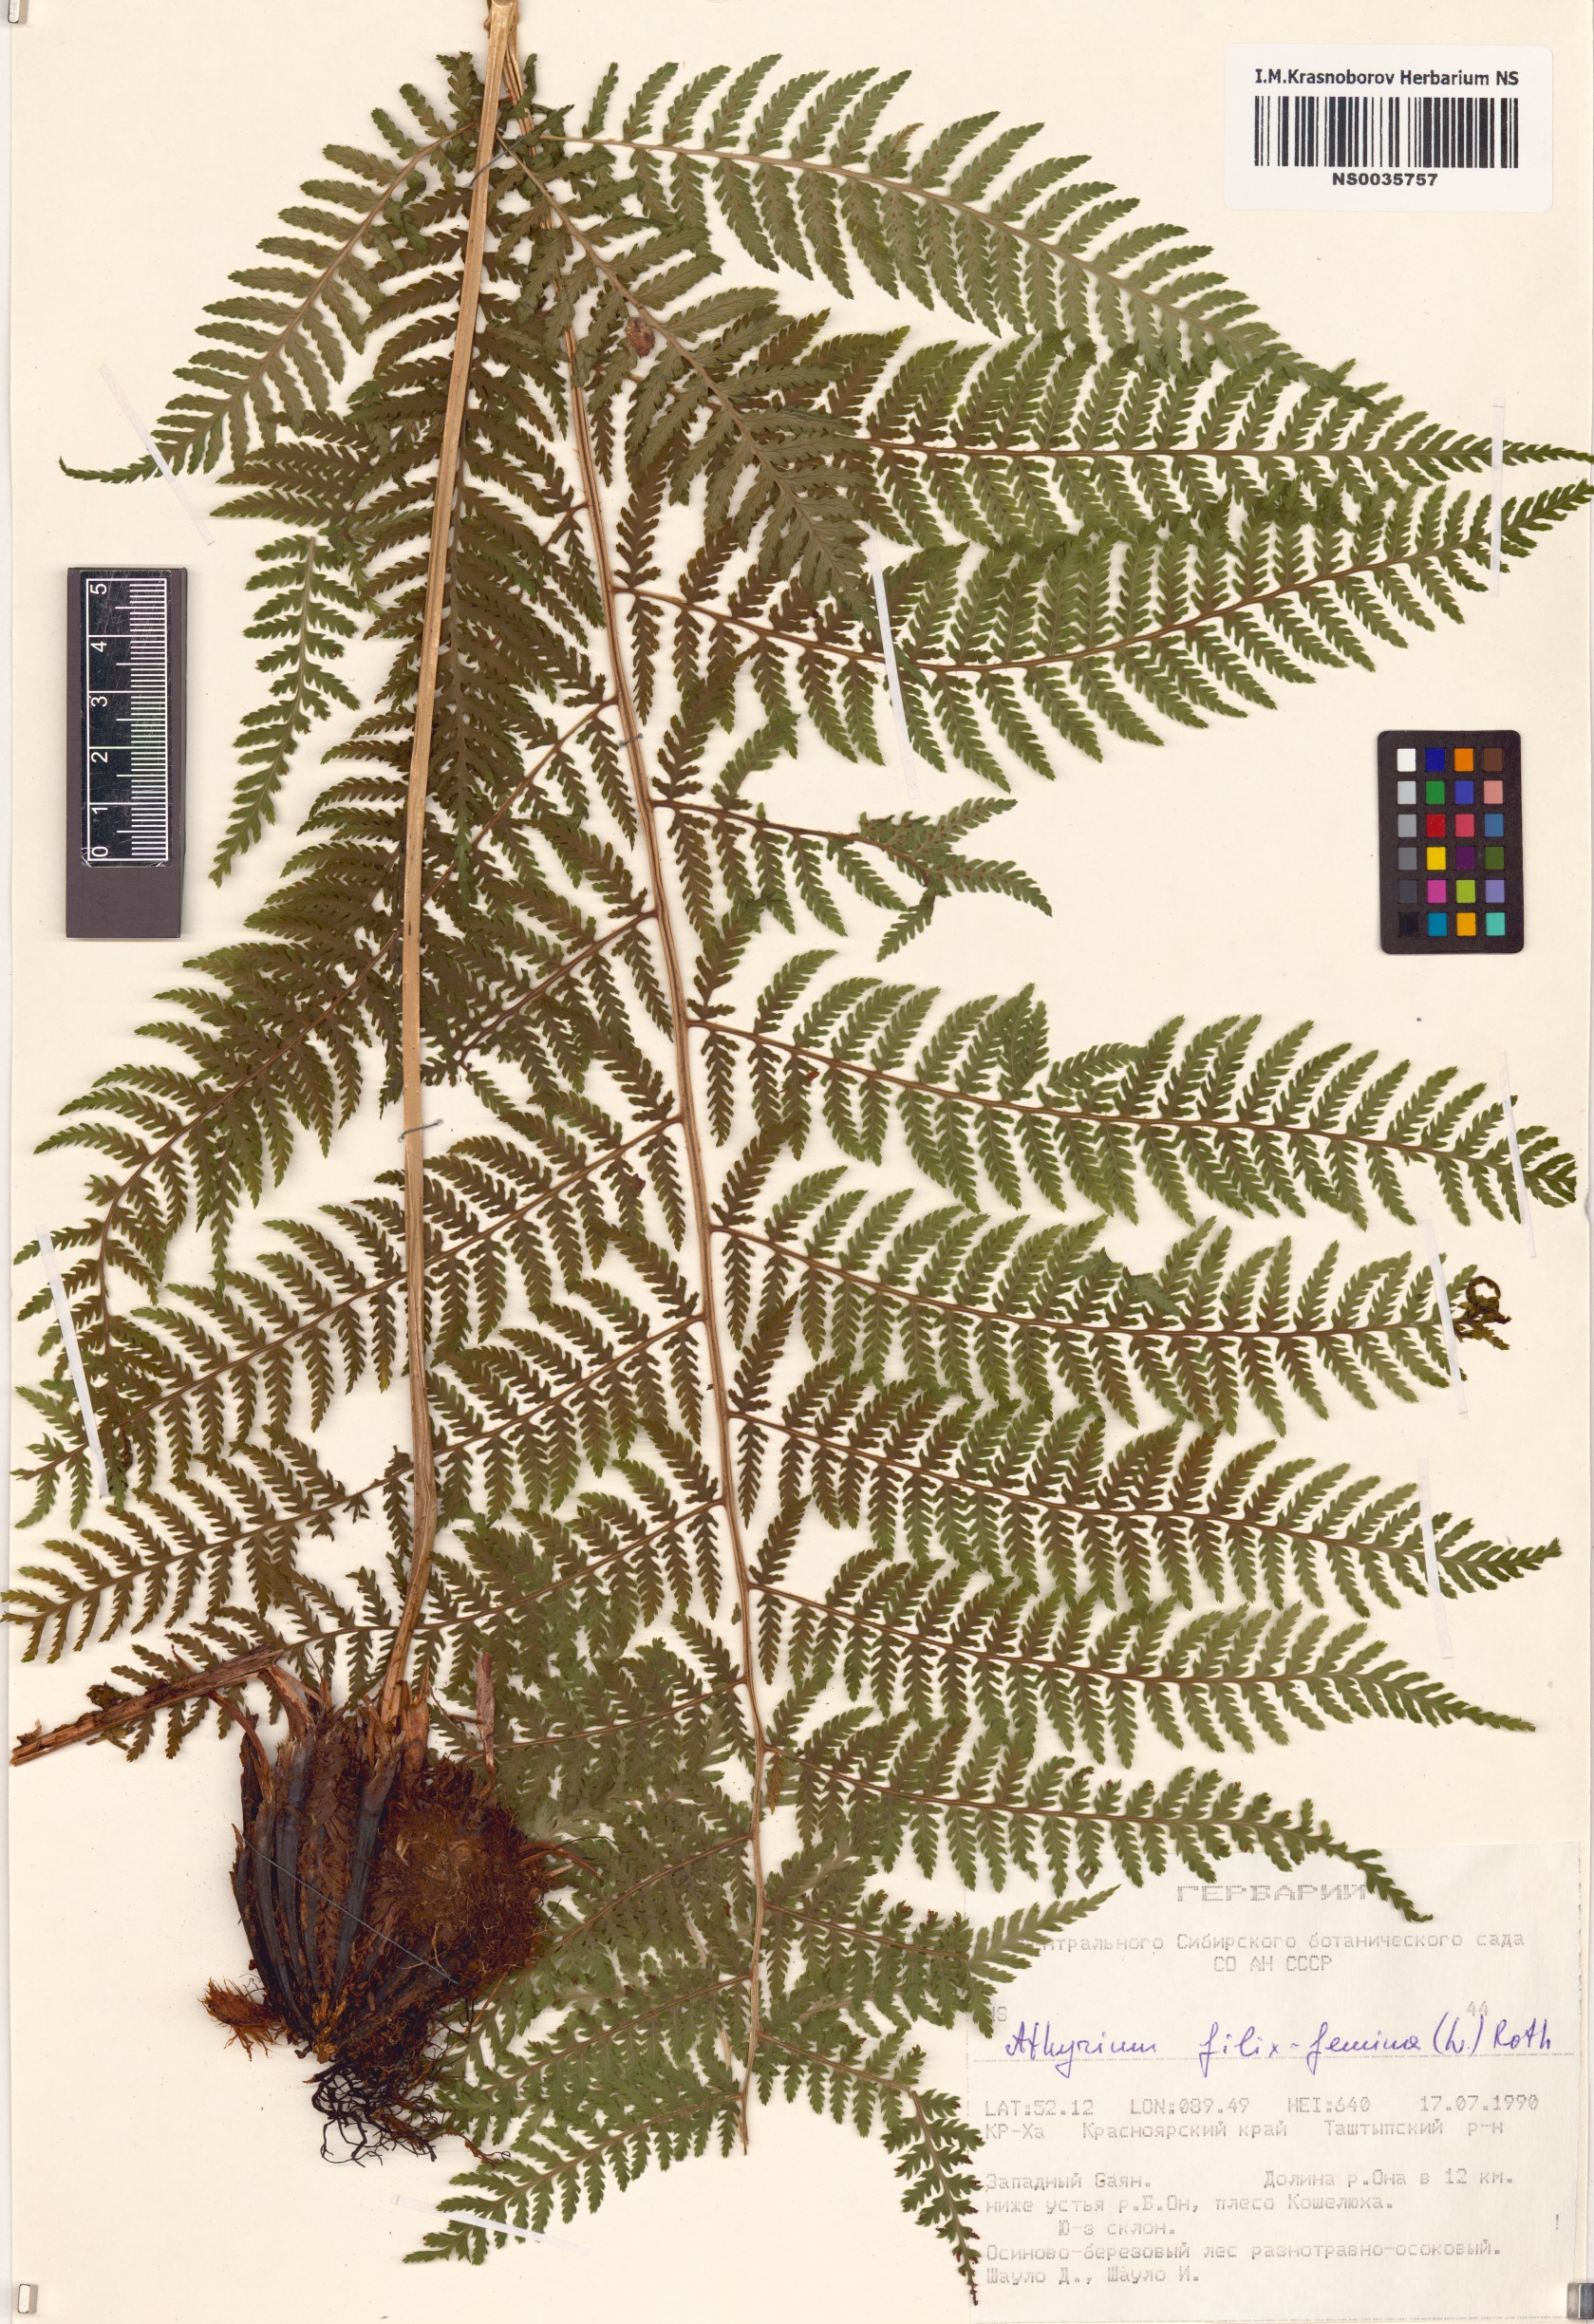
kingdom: Plantae
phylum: Tracheophyta
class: Polypodiopsida
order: Polypodiales
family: Athyriaceae
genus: Athyrium
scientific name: Athyrium filix-femina
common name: Lady fern
